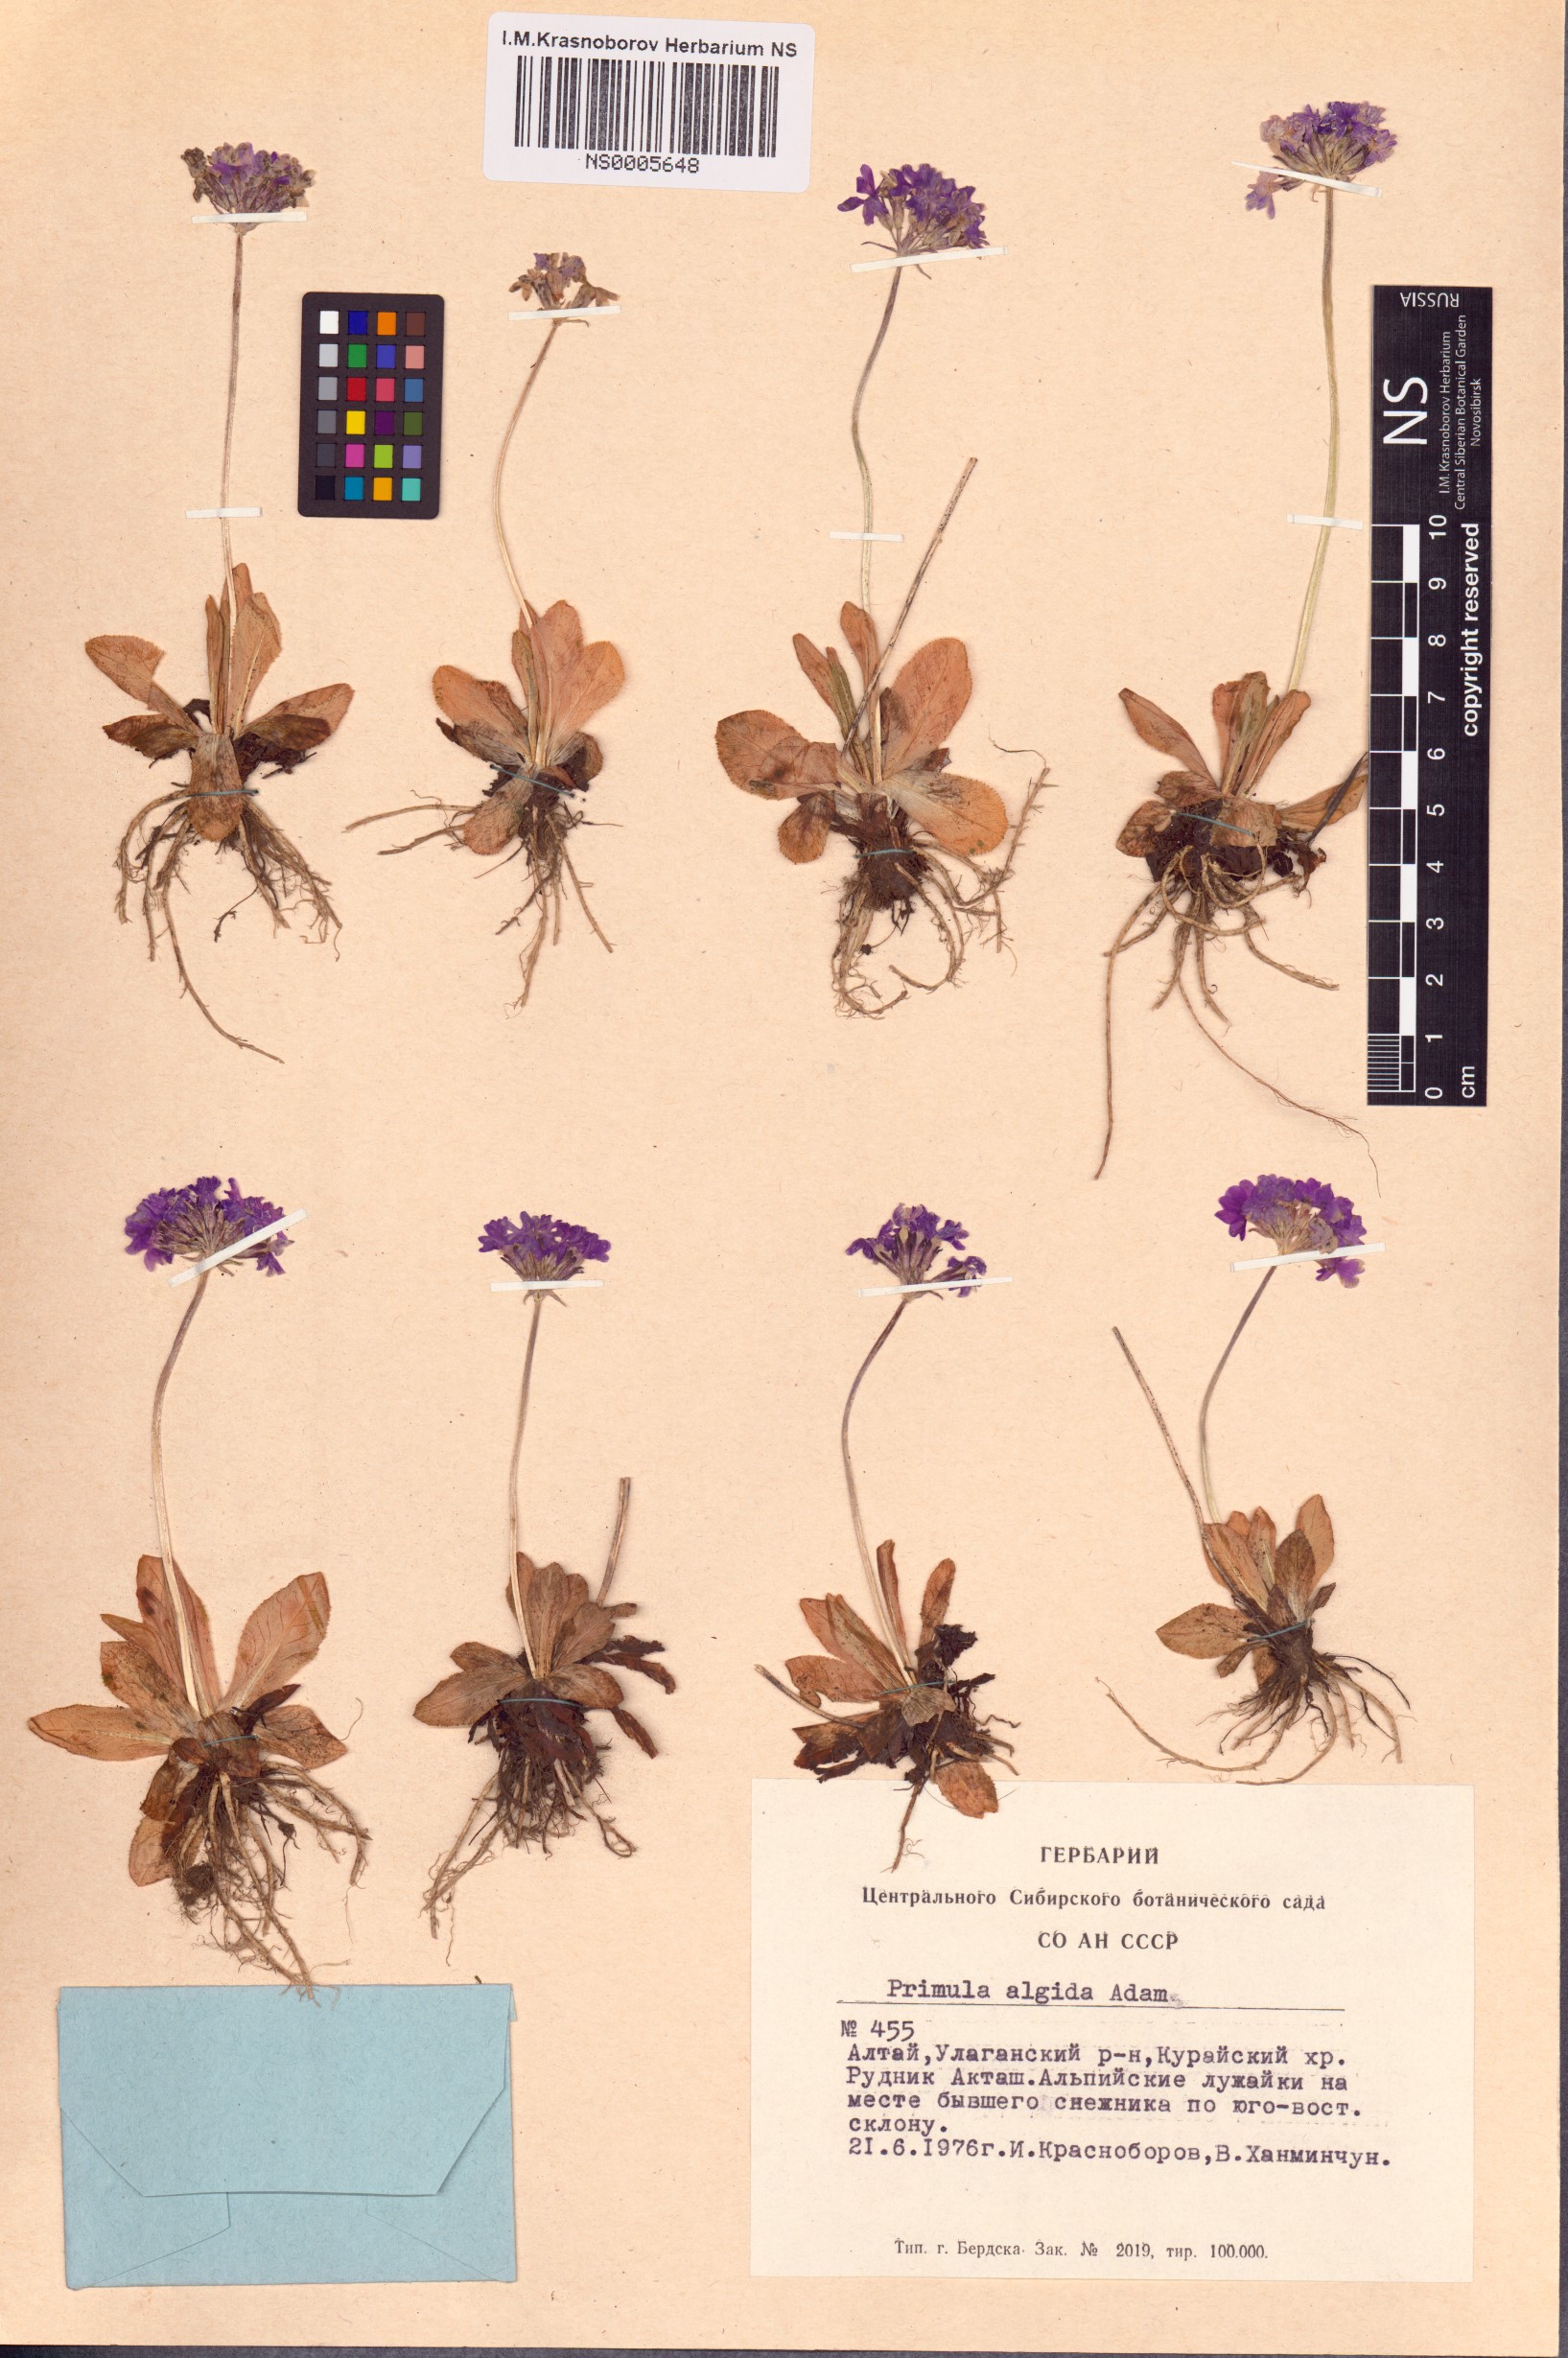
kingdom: Plantae
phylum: Tracheophyta
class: Magnoliopsida
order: Ericales
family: Primulaceae
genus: Primula
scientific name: Primula algida
